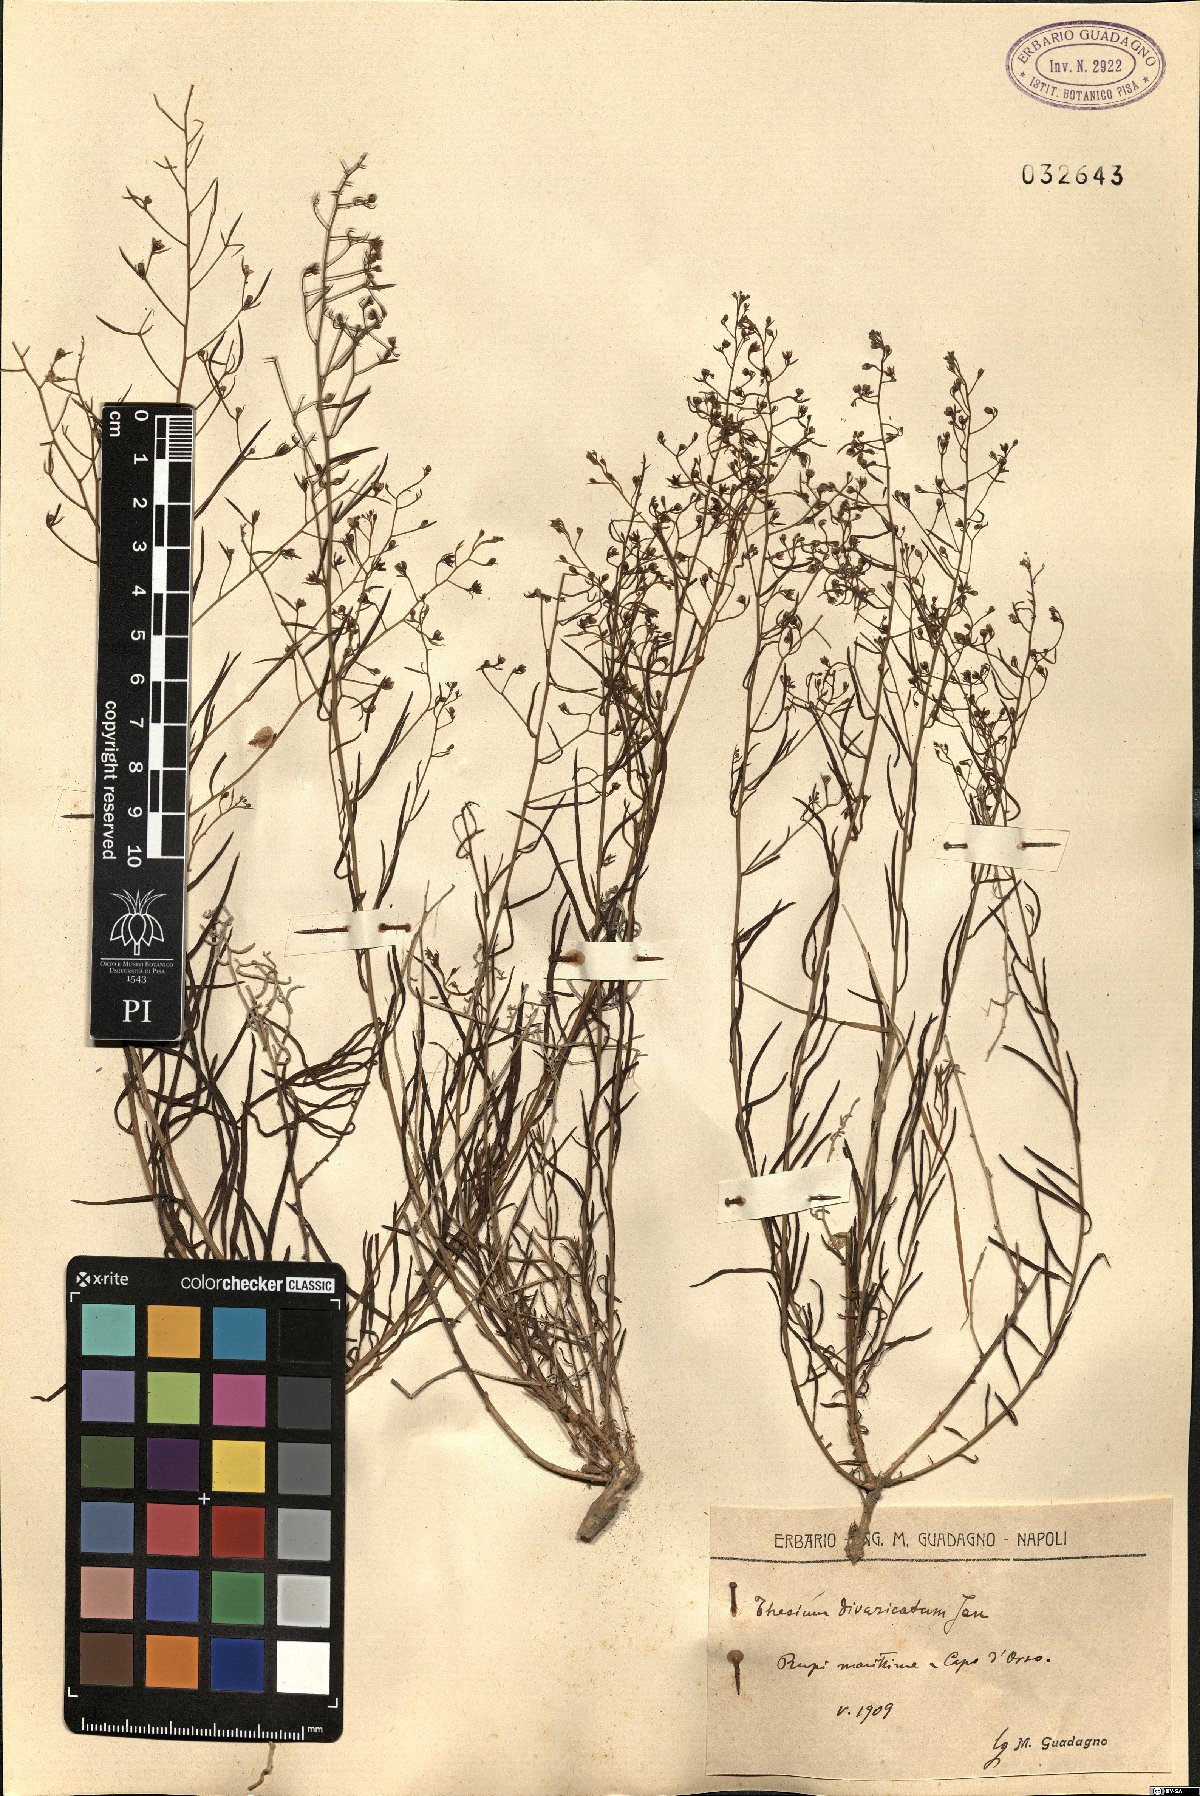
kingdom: Plantae
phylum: Tracheophyta
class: Magnoliopsida
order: Santalales
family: Thesiaceae
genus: Thesium
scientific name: Thesium divaricatum
